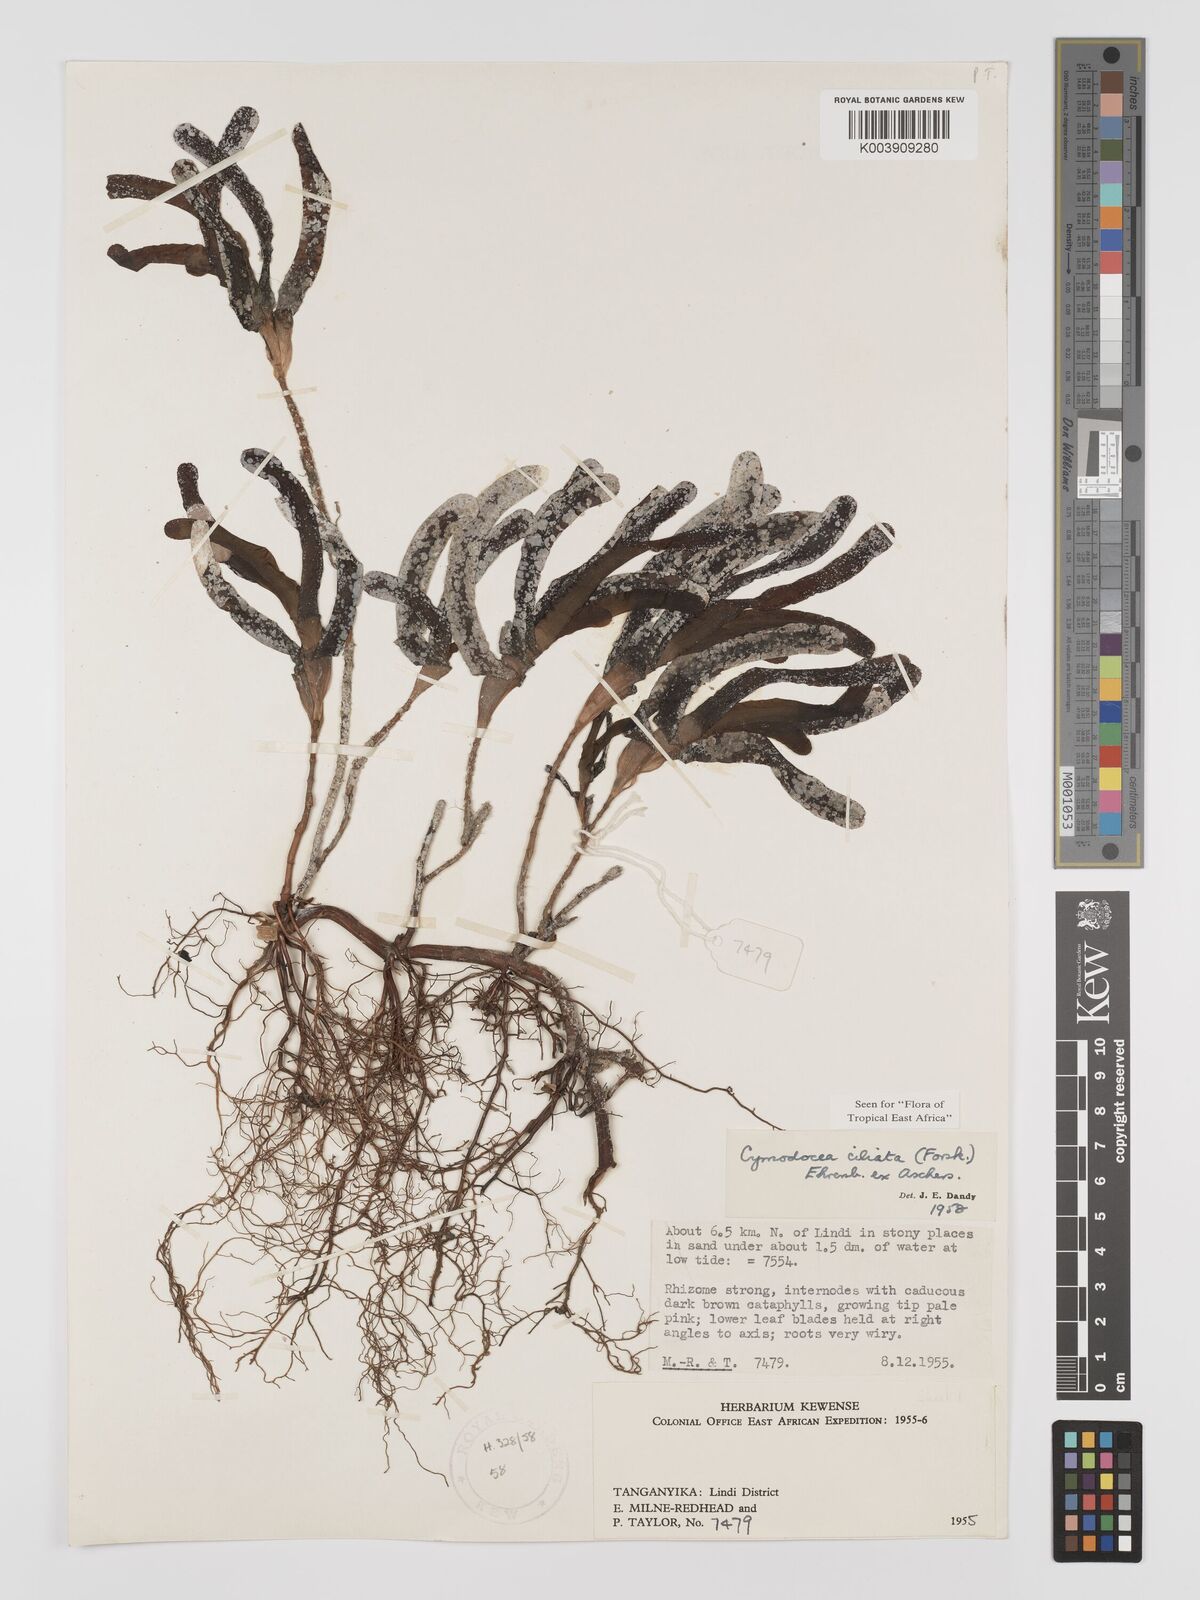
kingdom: Plantae
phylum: Tracheophyta
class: Liliopsida
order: Alismatales
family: Cymodoceaceae
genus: Thalassodendron
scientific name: Thalassodendron ciliatum
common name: Species code: tc
